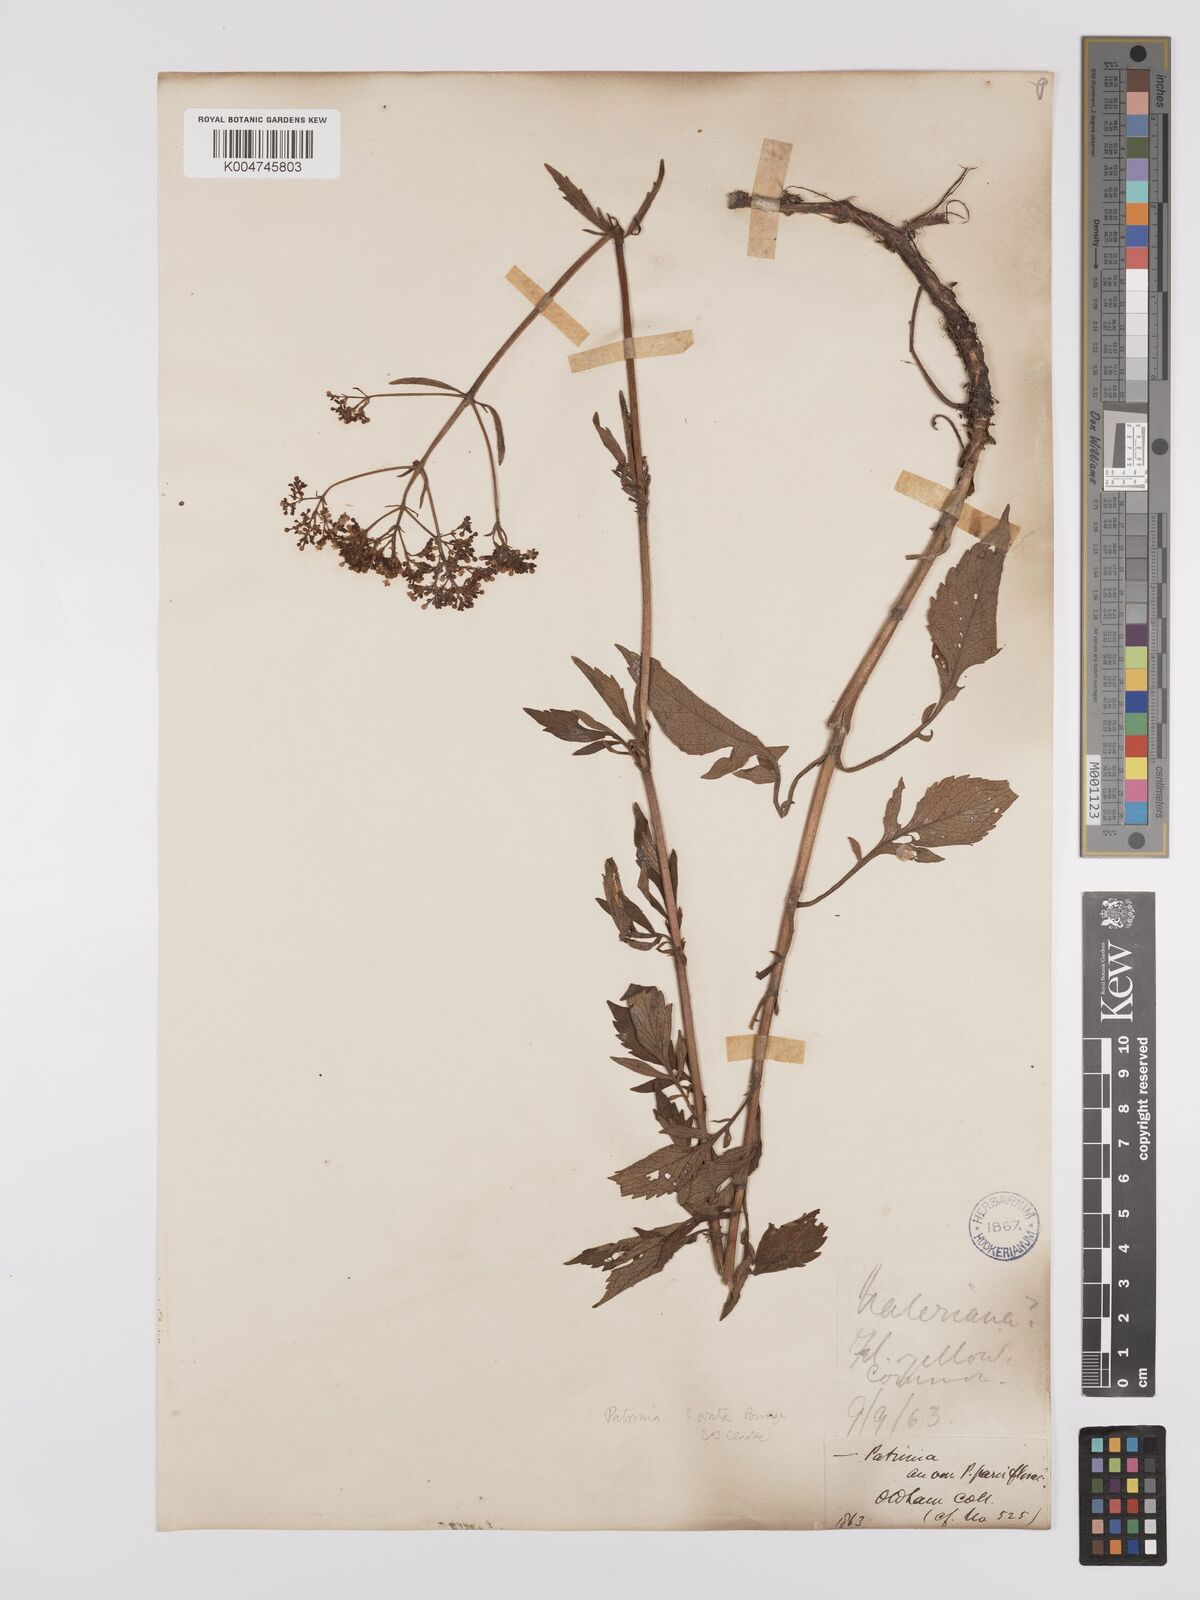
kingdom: Plantae
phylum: Tracheophyta
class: Magnoliopsida
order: Dipsacales
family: Caprifoliaceae
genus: Patrinia
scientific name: Patrinia scabiosifolia
